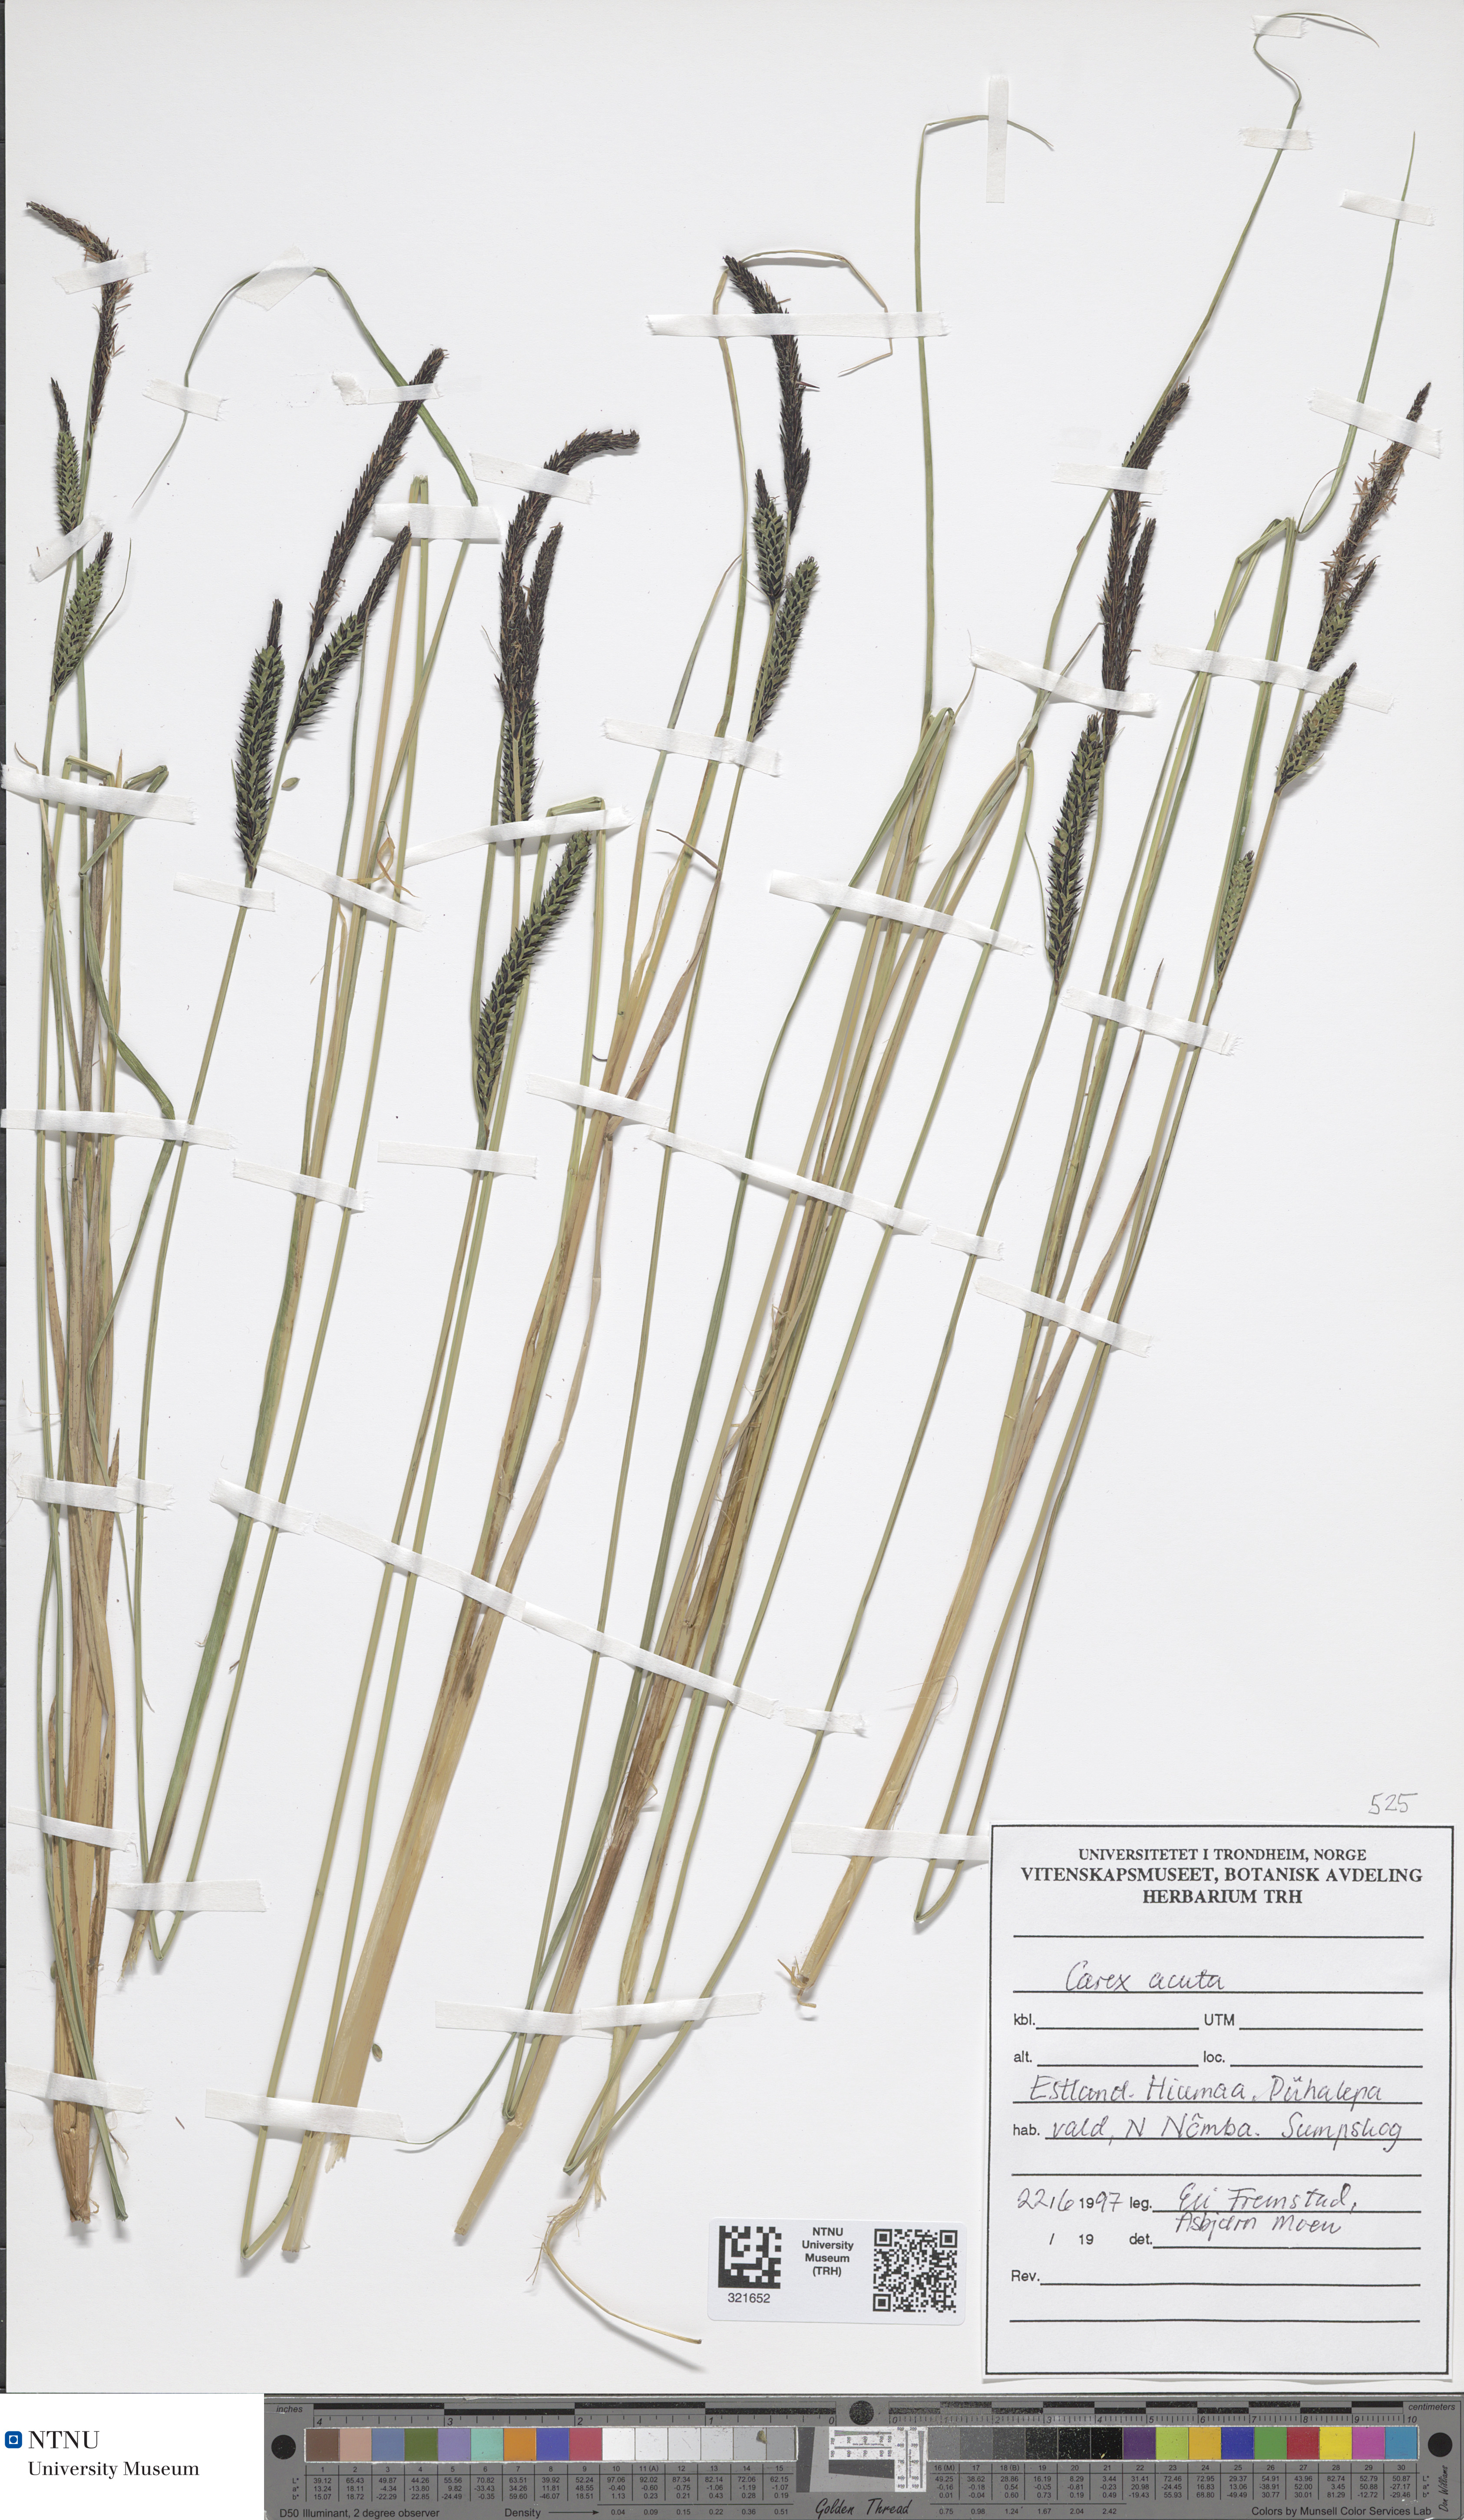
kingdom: Plantae
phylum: Tracheophyta
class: Liliopsida
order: Poales
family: Cyperaceae
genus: Carex
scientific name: Carex acuta
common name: Slender tufted-sedge
